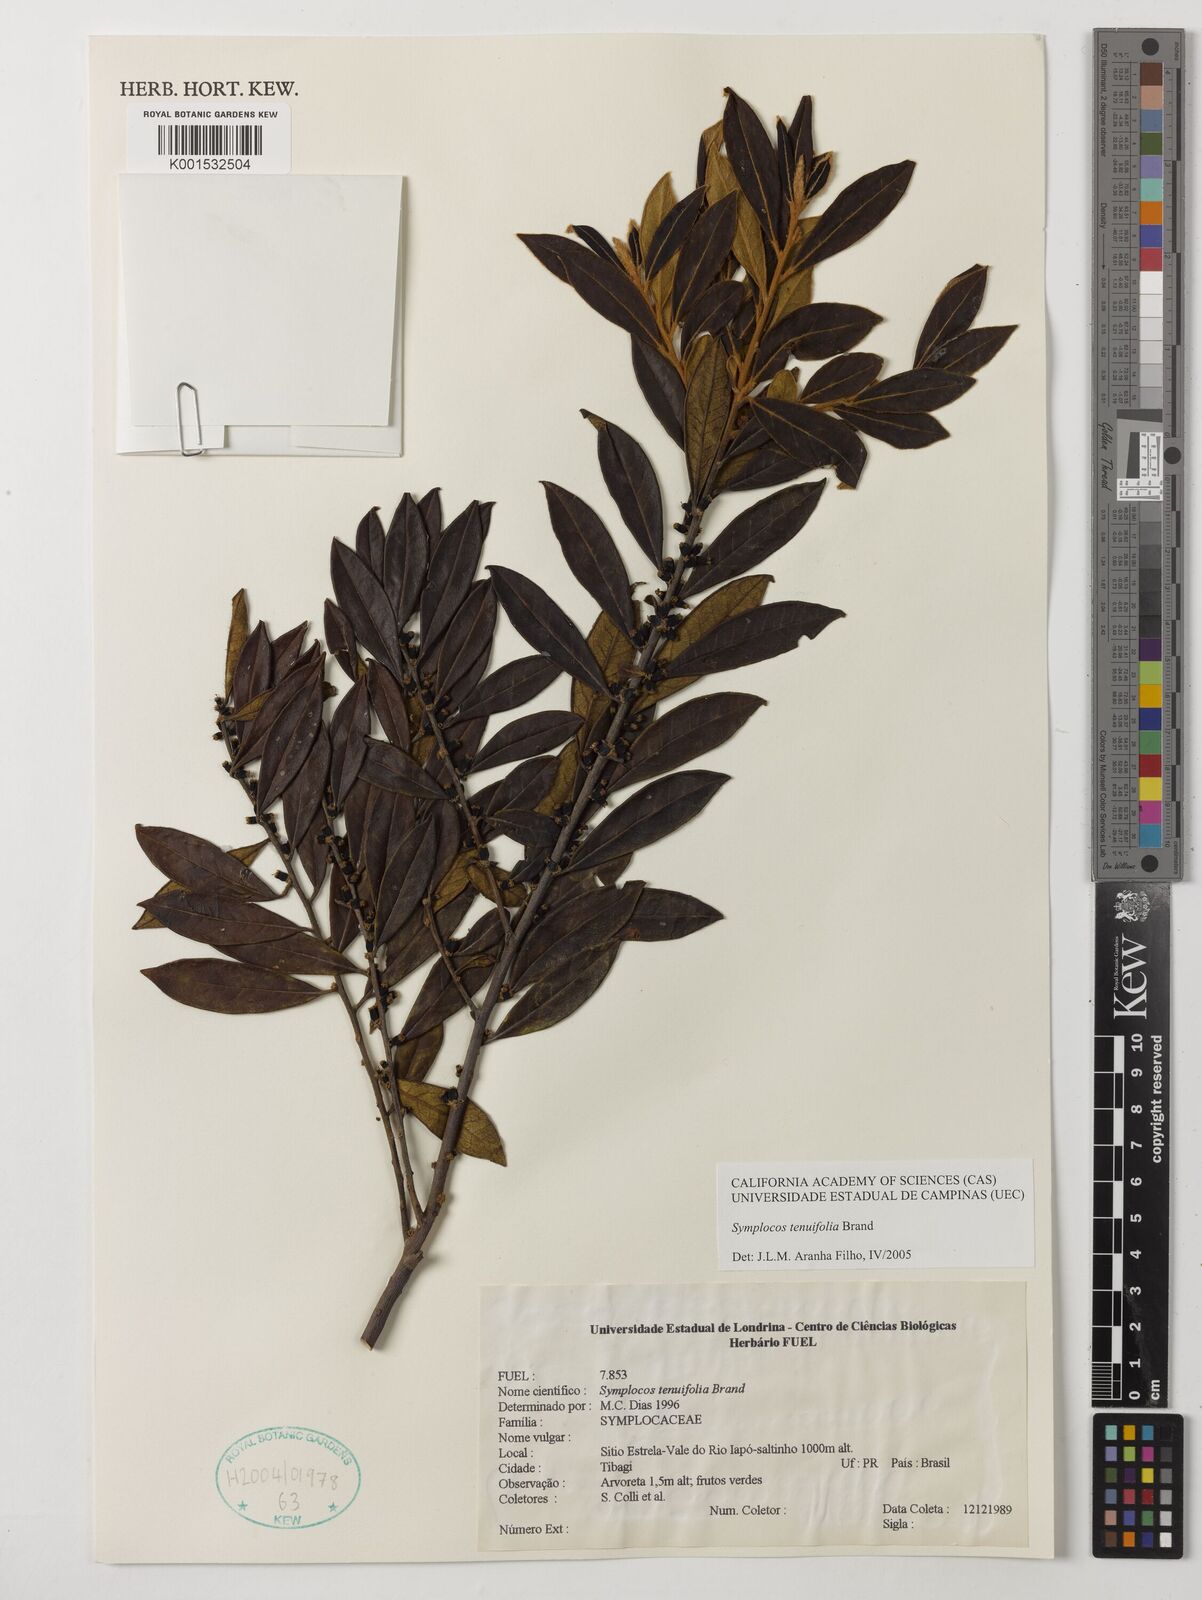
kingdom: Plantae
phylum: Tracheophyta
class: Magnoliopsida
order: Ericales
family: Symplocaceae
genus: Symplocos
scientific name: Symplocos tenuifolia
